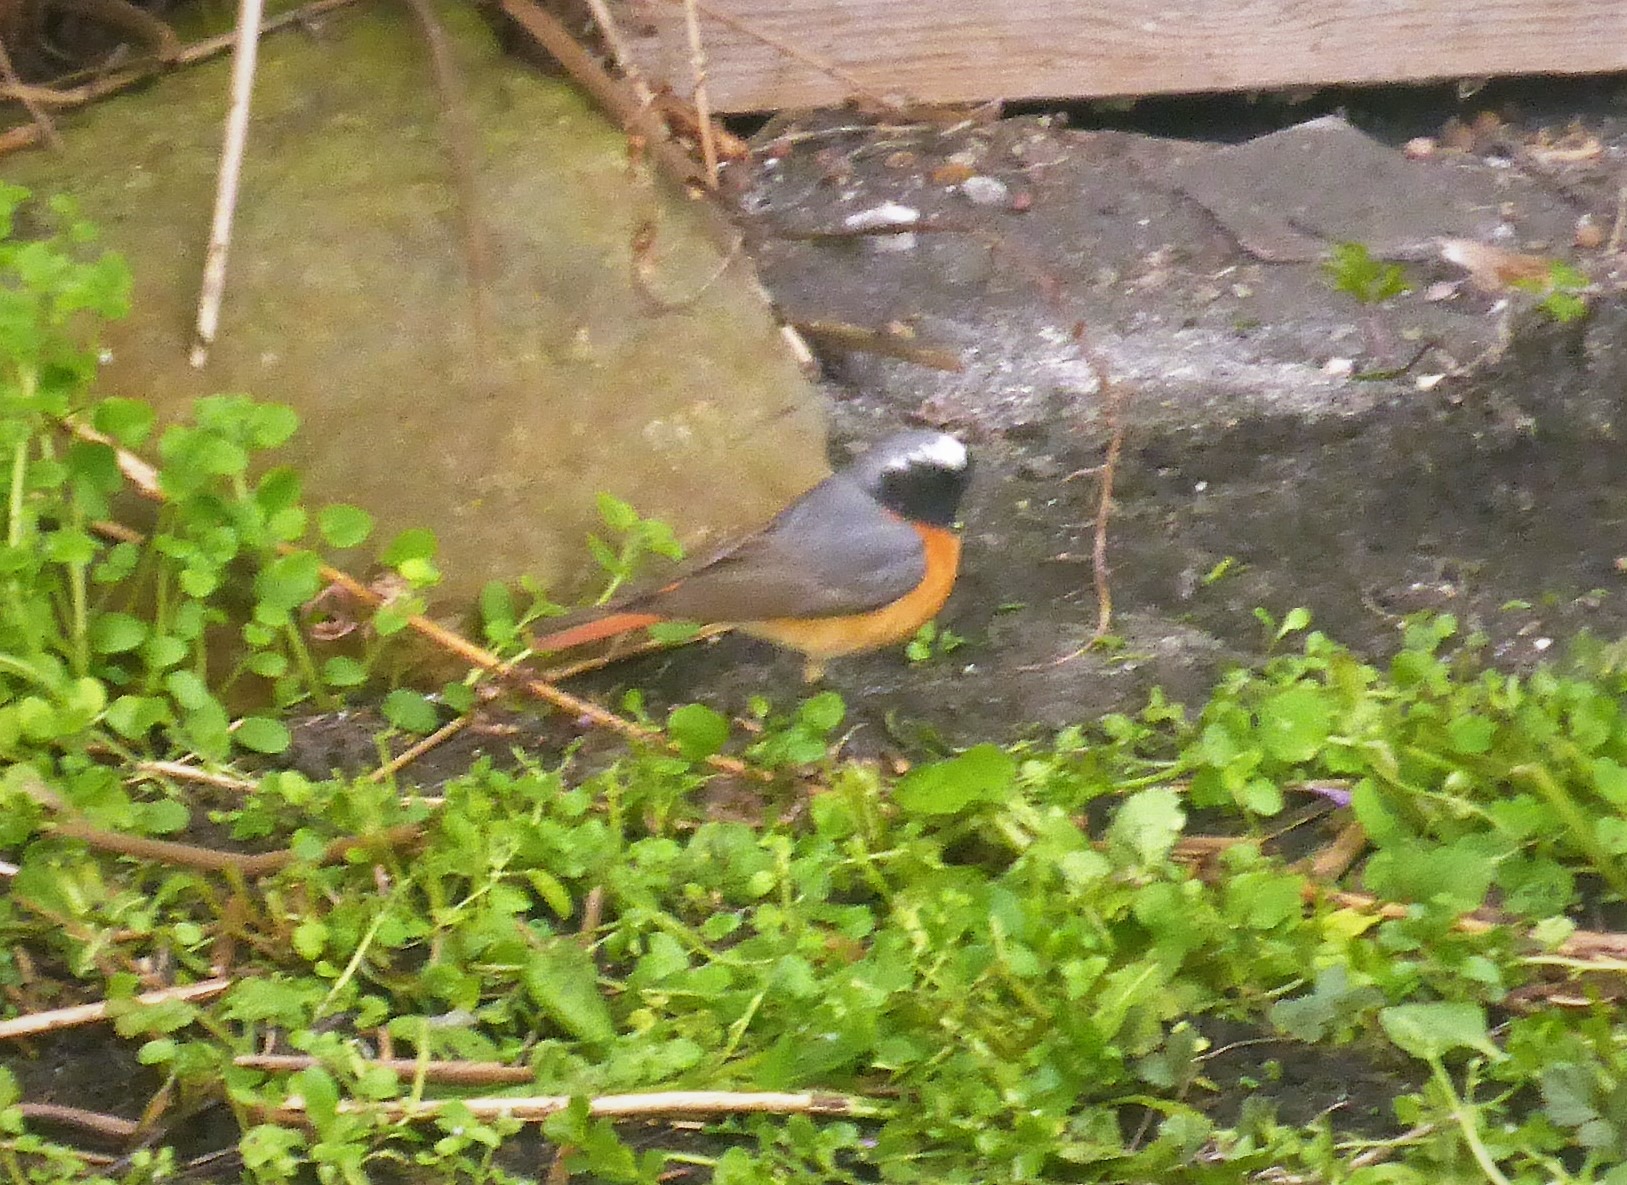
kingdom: Animalia
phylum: Chordata
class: Aves
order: Passeriformes
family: Muscicapidae
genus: Phoenicurus
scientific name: Phoenicurus phoenicurus
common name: Rødstjert
